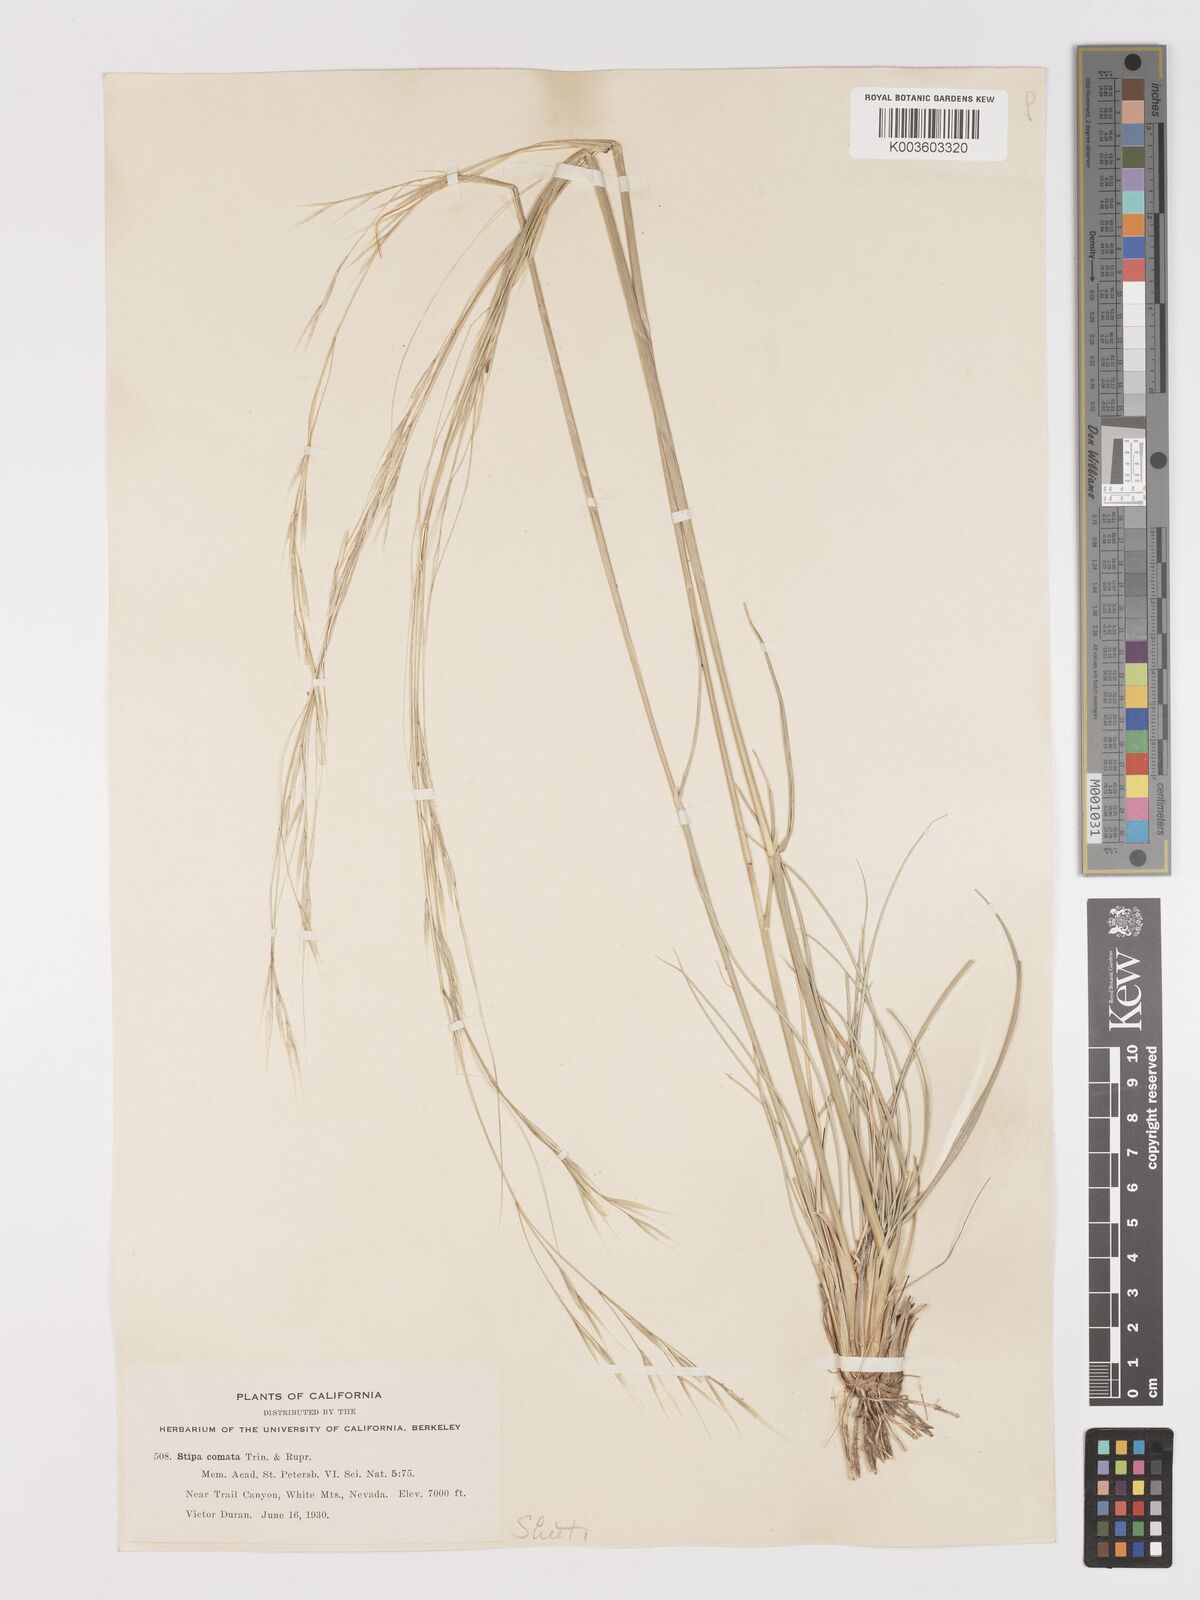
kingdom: Plantae
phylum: Tracheophyta
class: Liliopsida
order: Poales
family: Poaceae
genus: Hesperostipa
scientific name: Hesperostipa comata
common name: Needle-and-thread grass
